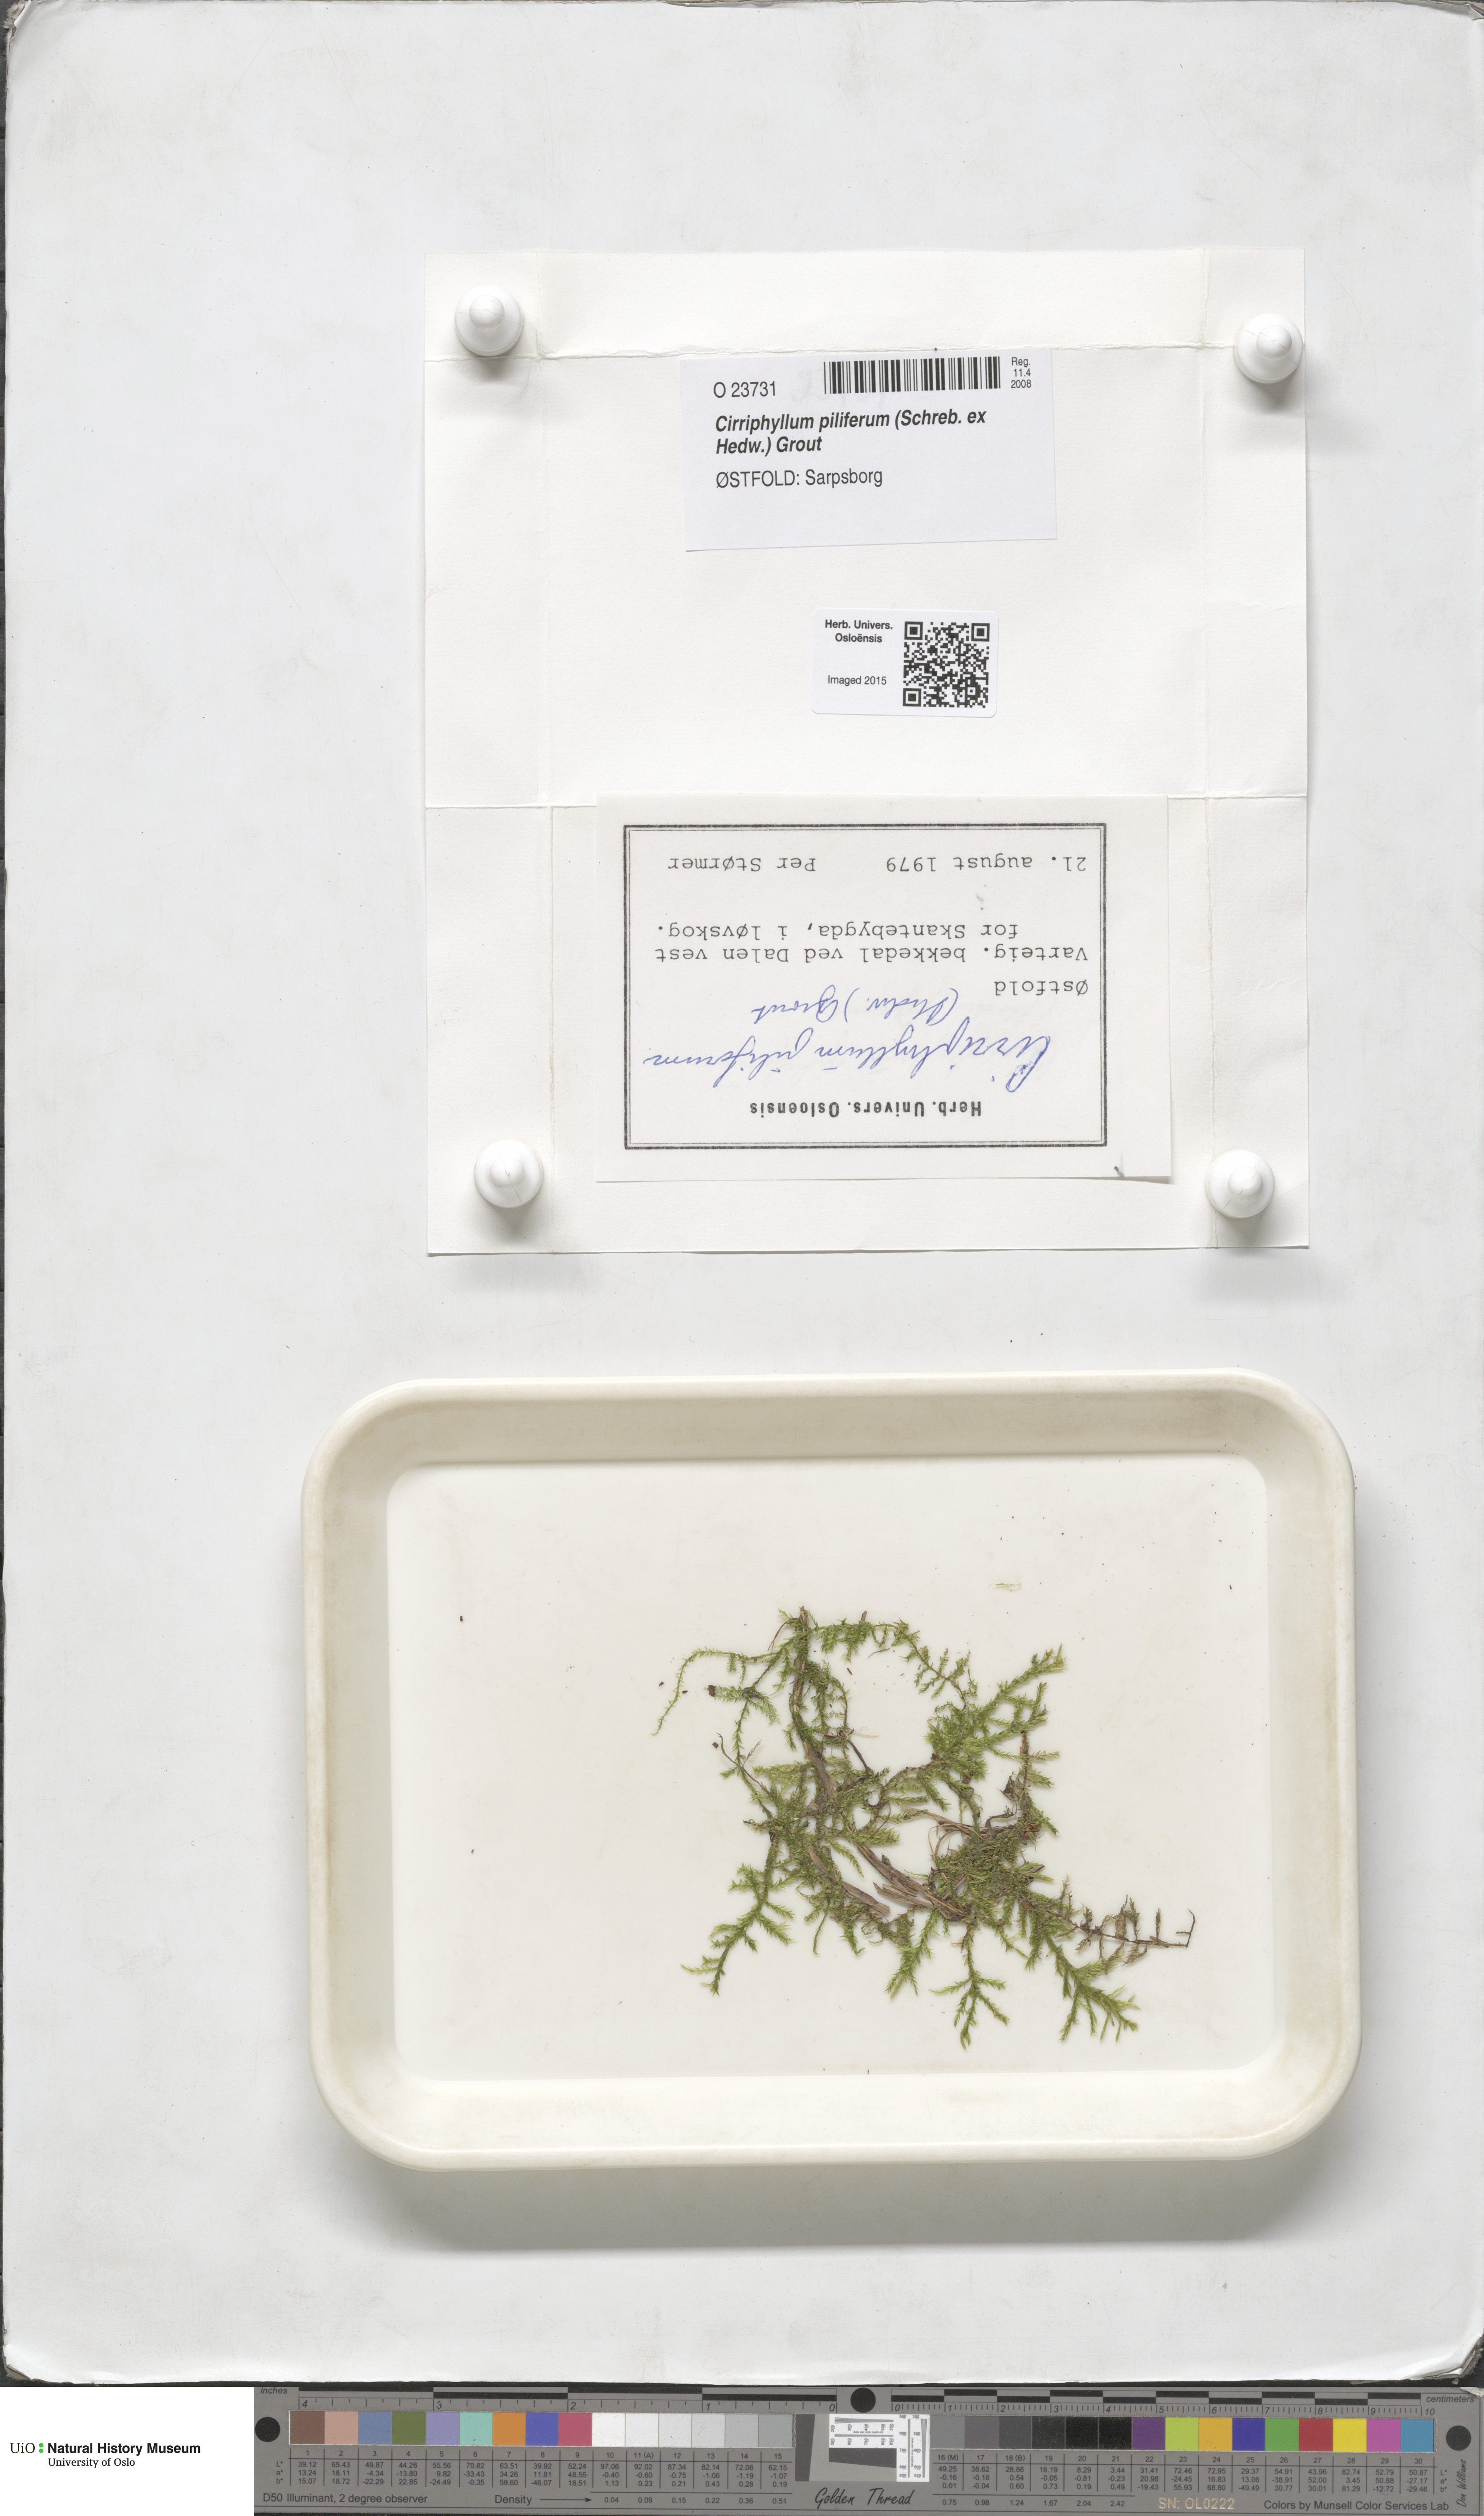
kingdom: Plantae
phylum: Bryophyta
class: Bryopsida
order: Hypnales
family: Brachytheciaceae
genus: Cirriphyllum
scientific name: Cirriphyllum piliferum
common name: Hair-pointed moss
